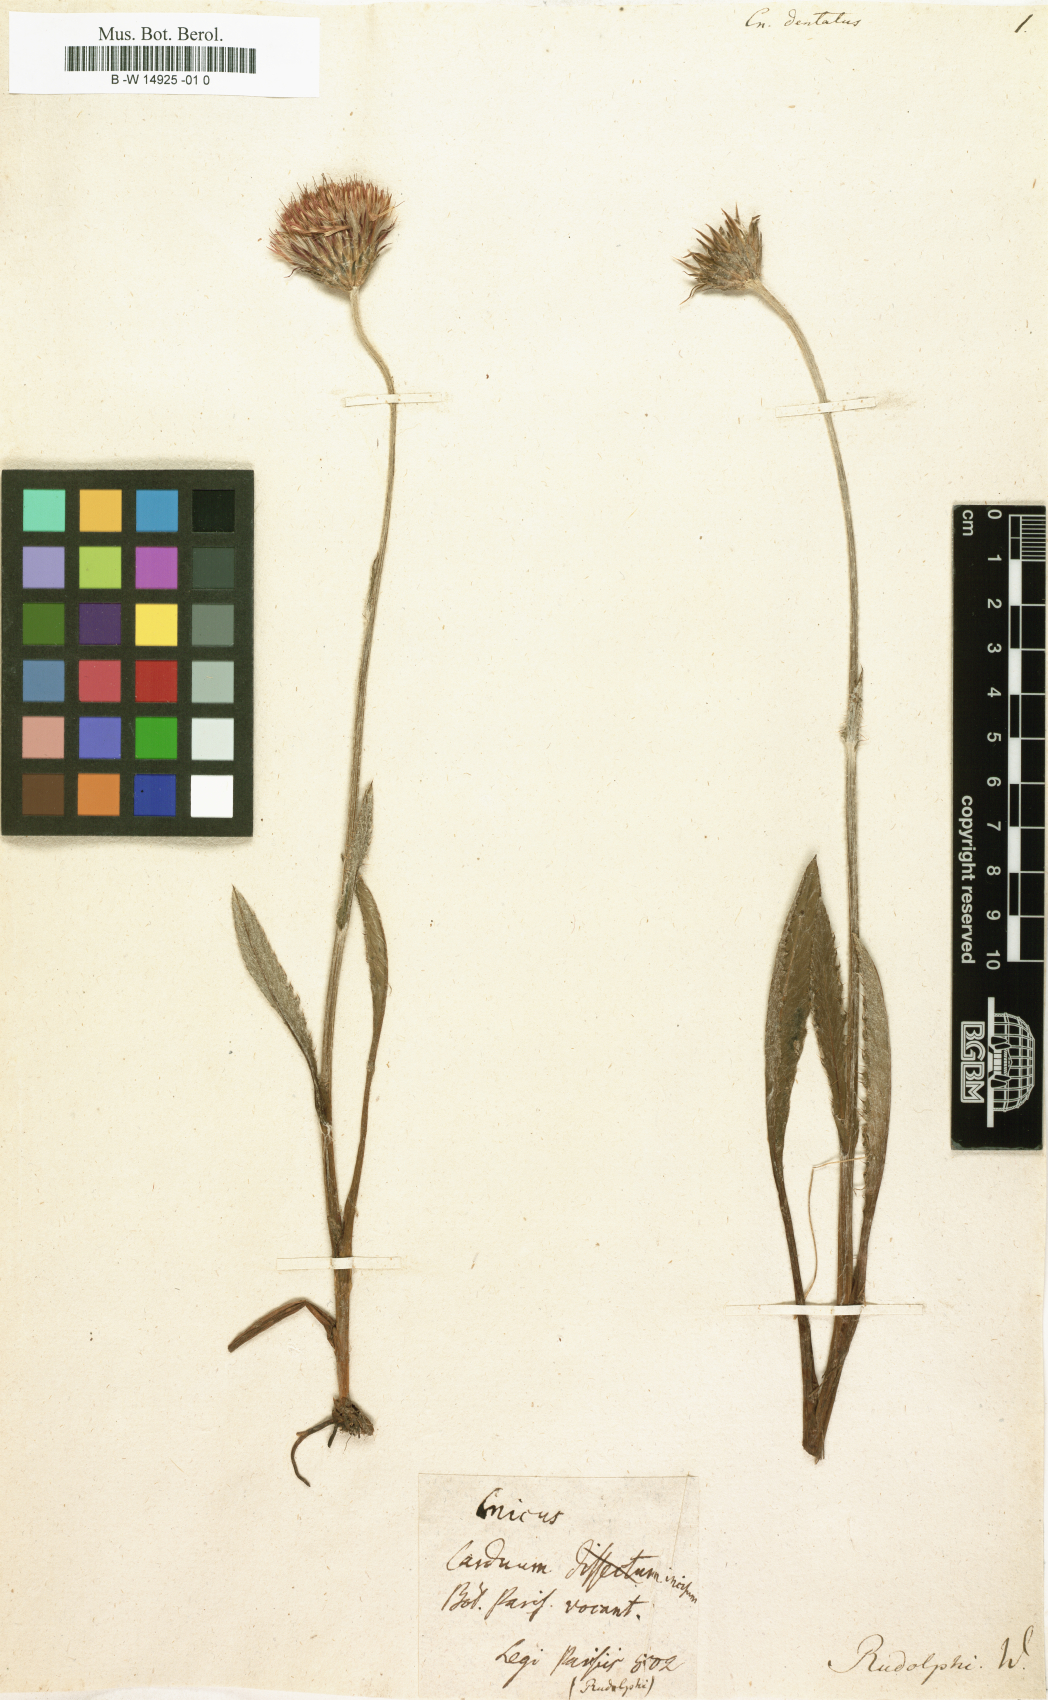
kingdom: Plantae
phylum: Tracheophyta
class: Magnoliopsida
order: Asterales
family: Asteraceae
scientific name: Asteraceae
